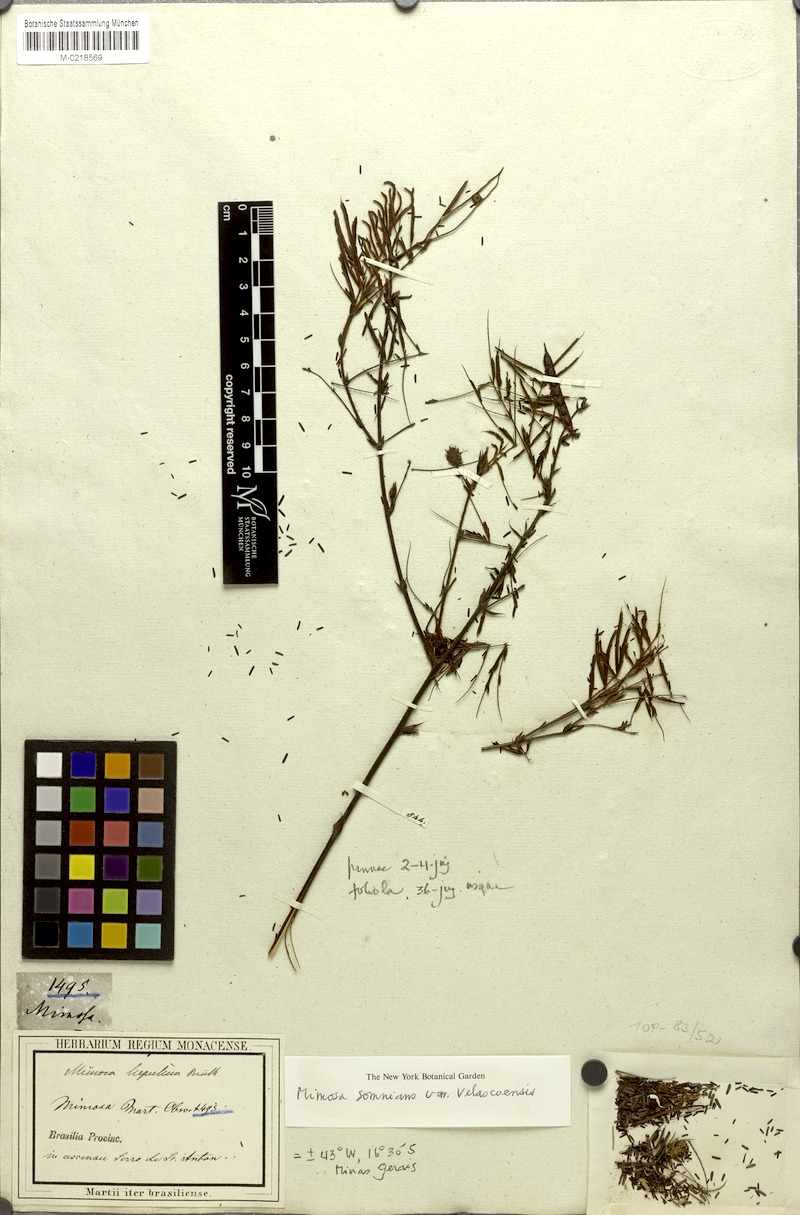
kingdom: Plantae
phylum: Tracheophyta
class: Magnoliopsida
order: Fabales
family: Fabaceae
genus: Mimosa
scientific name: Mimosa somnians
